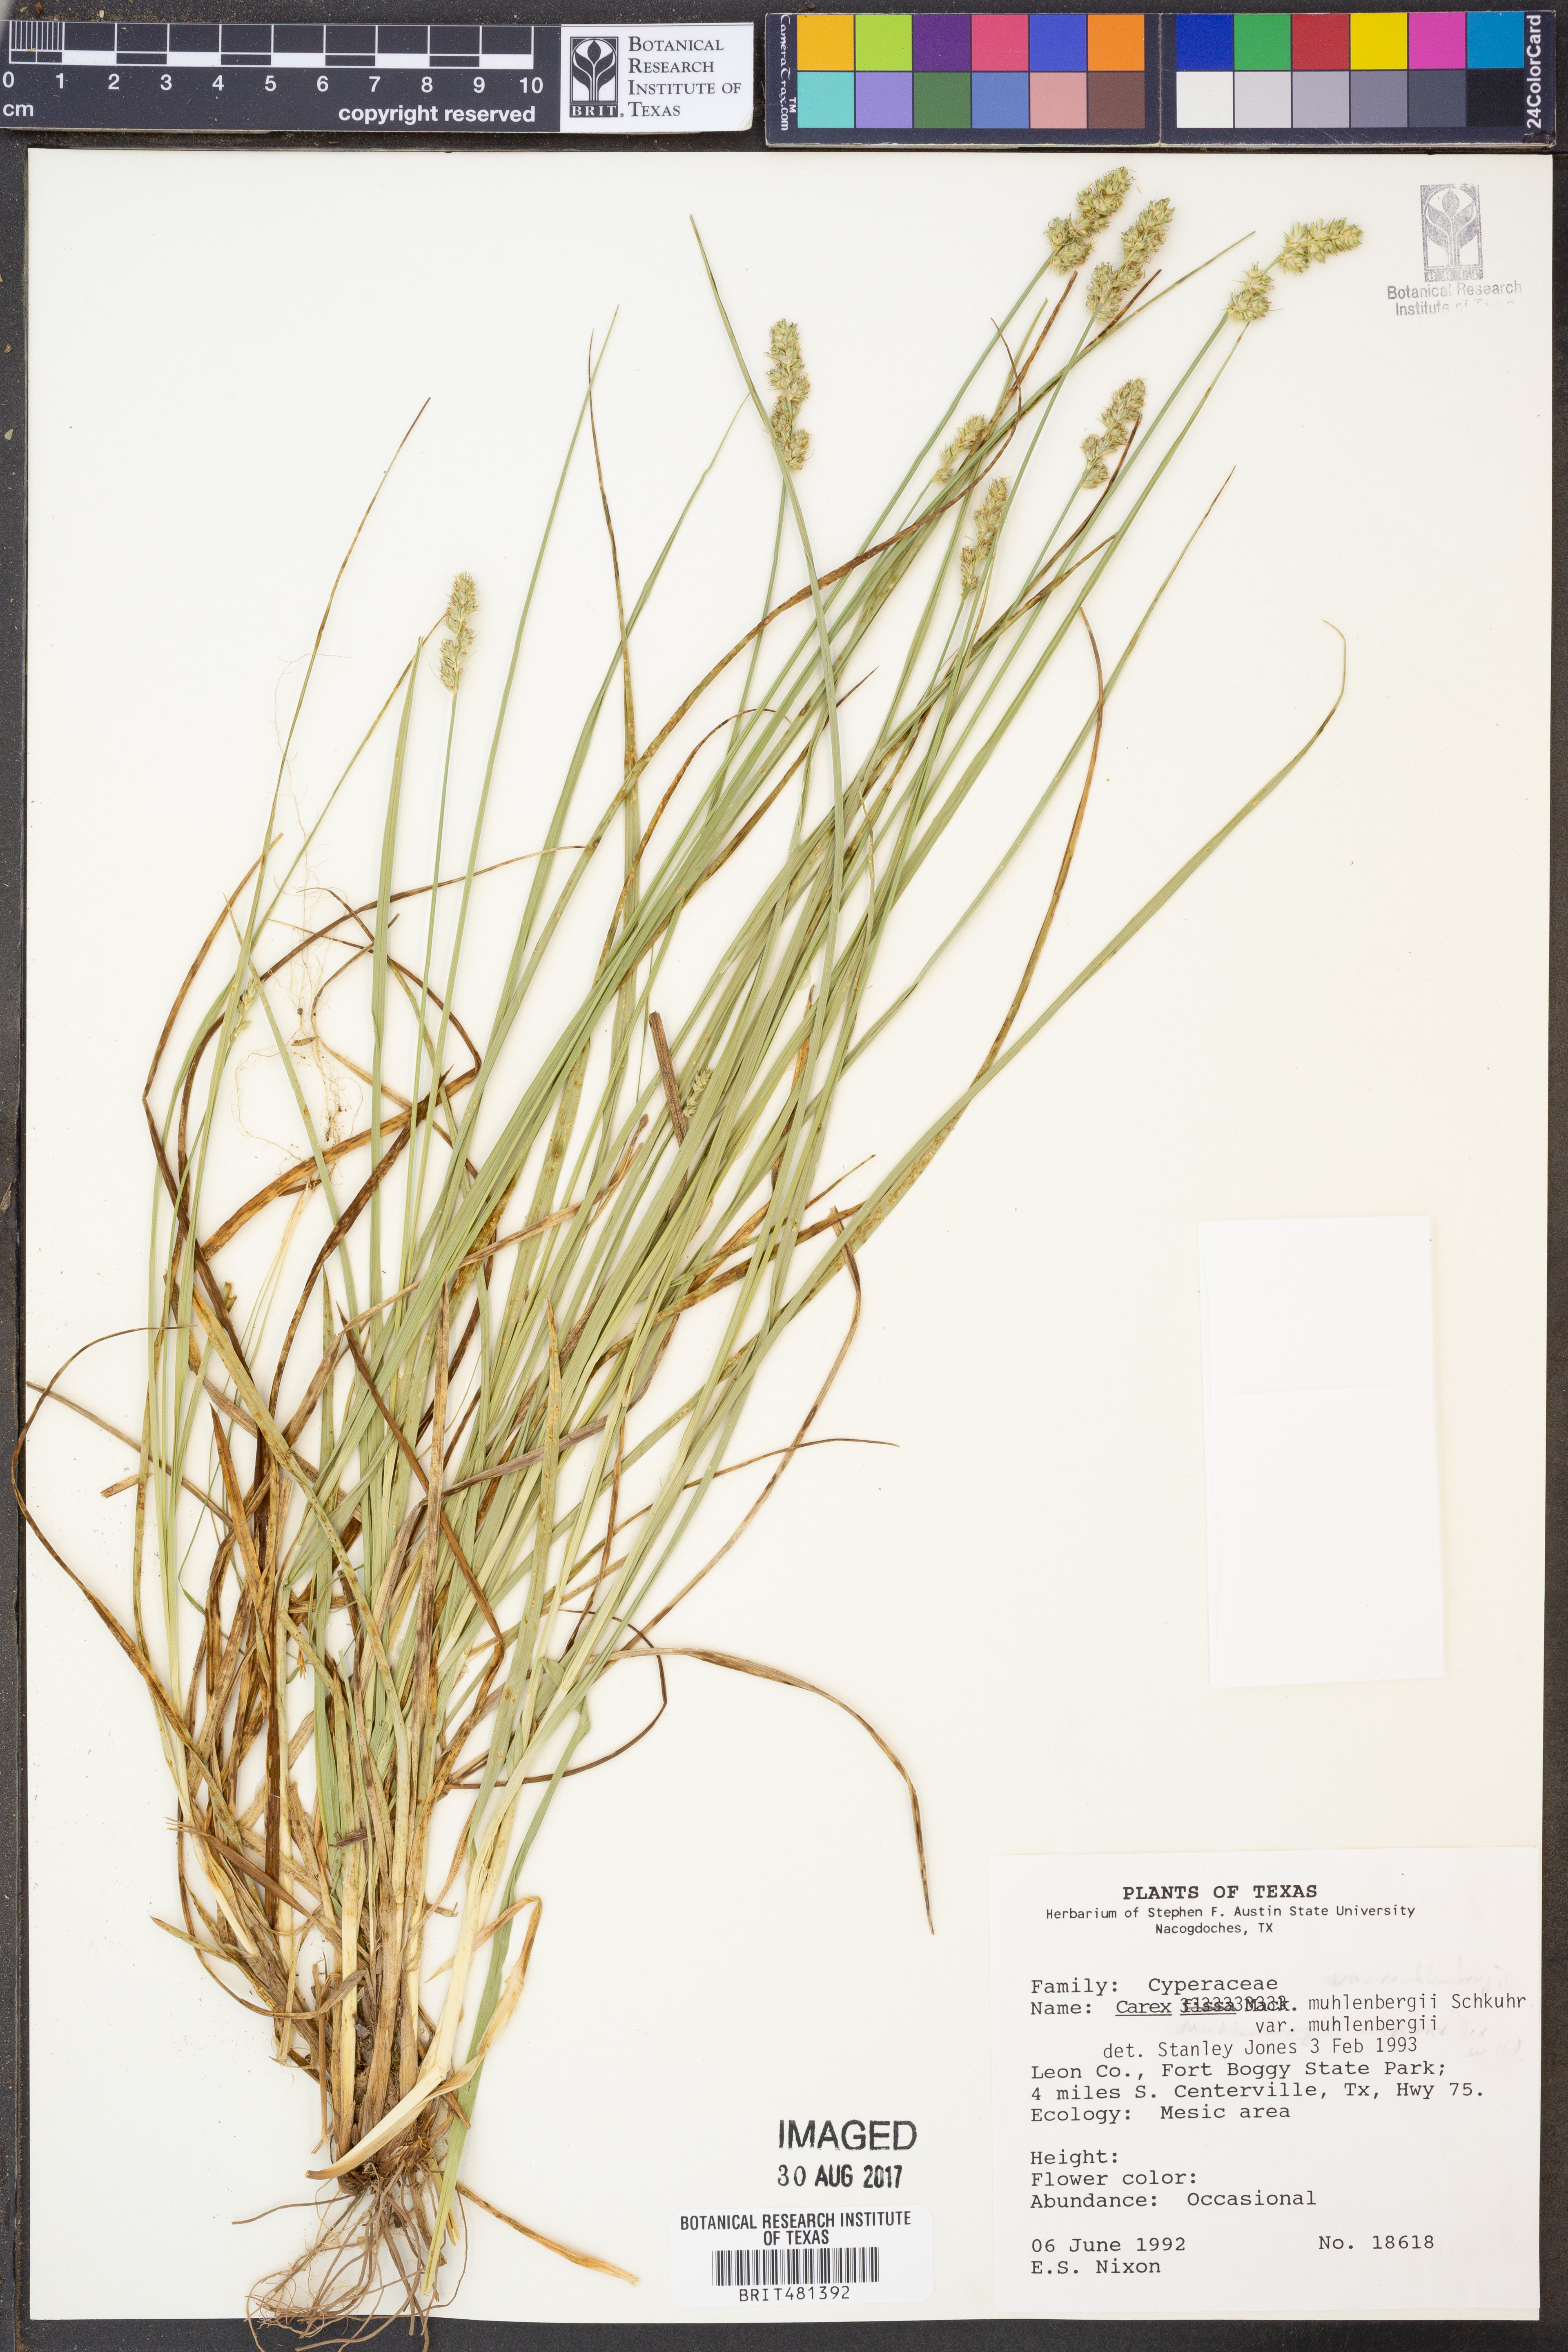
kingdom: Plantae
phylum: Tracheophyta
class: Liliopsida
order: Poales
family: Cyperaceae
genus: Carex
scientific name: Carex muehlenbergii
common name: Muhlenberg's bracted sedge
